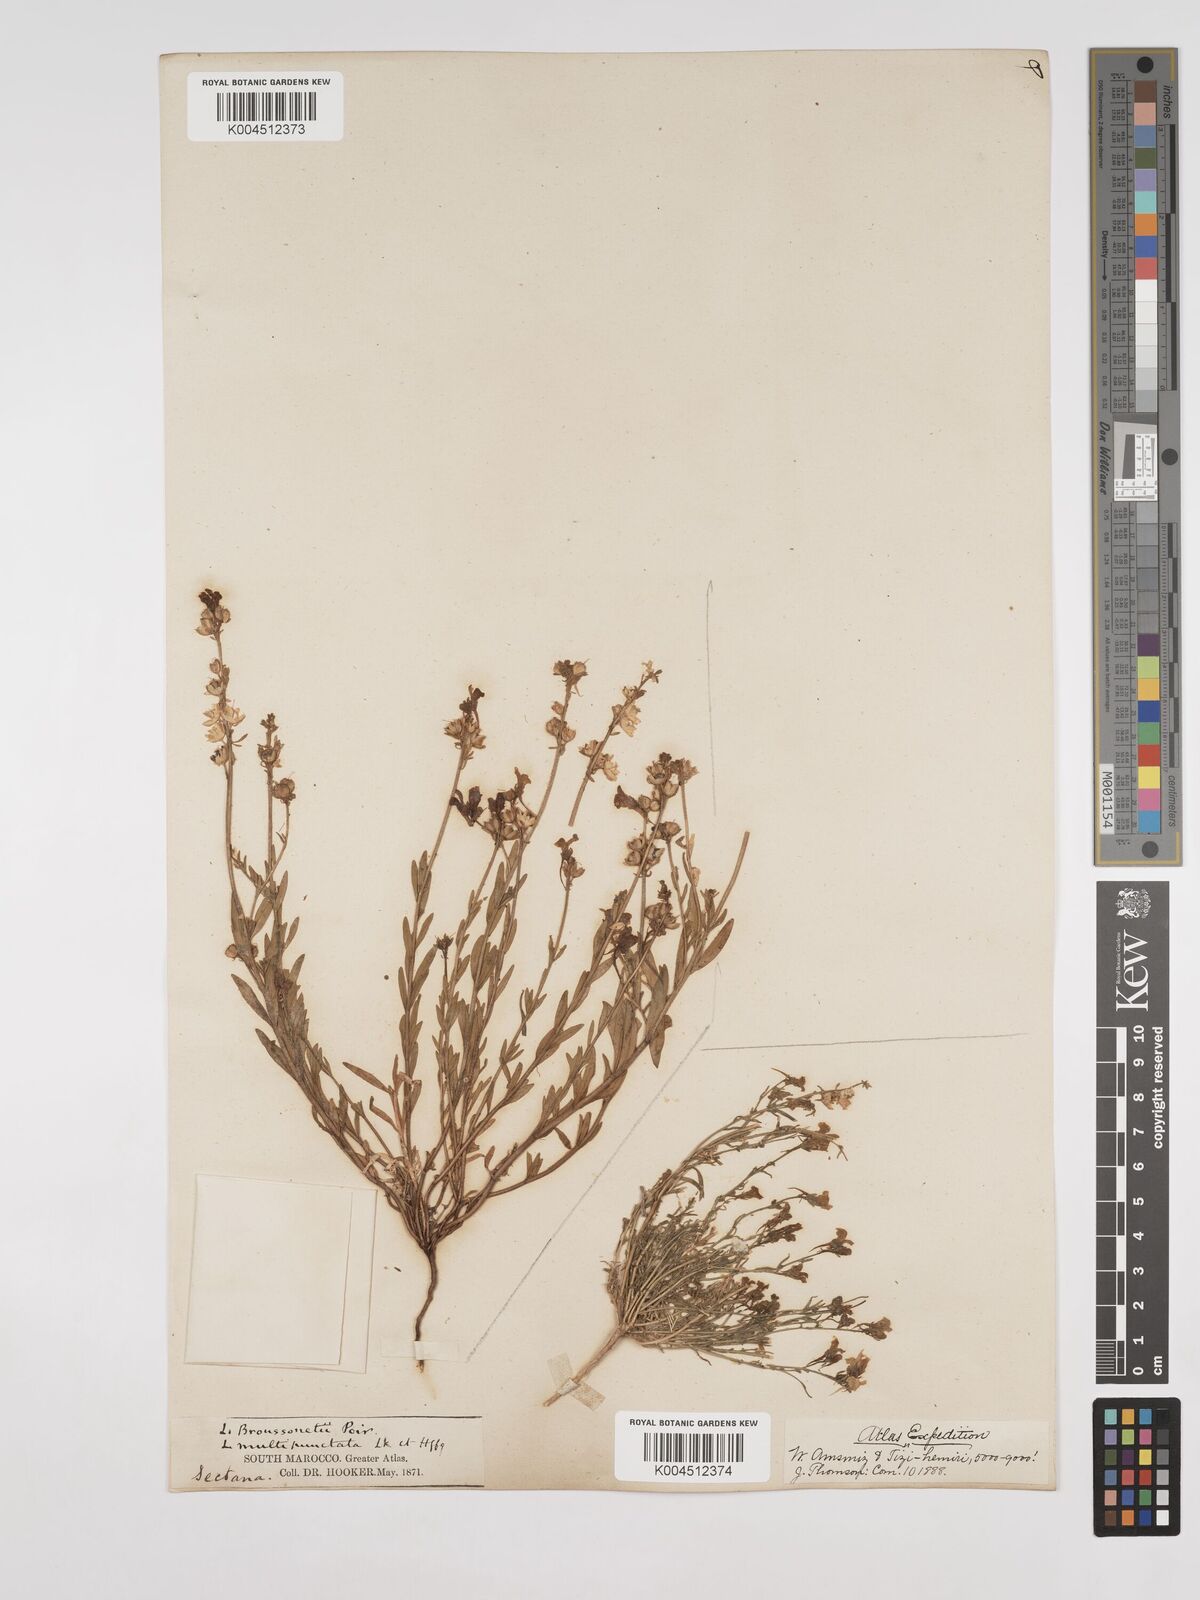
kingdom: Plantae
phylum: Tracheophyta
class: Magnoliopsida
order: Lamiales
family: Plantaginaceae
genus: Linaria
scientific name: Linaria
